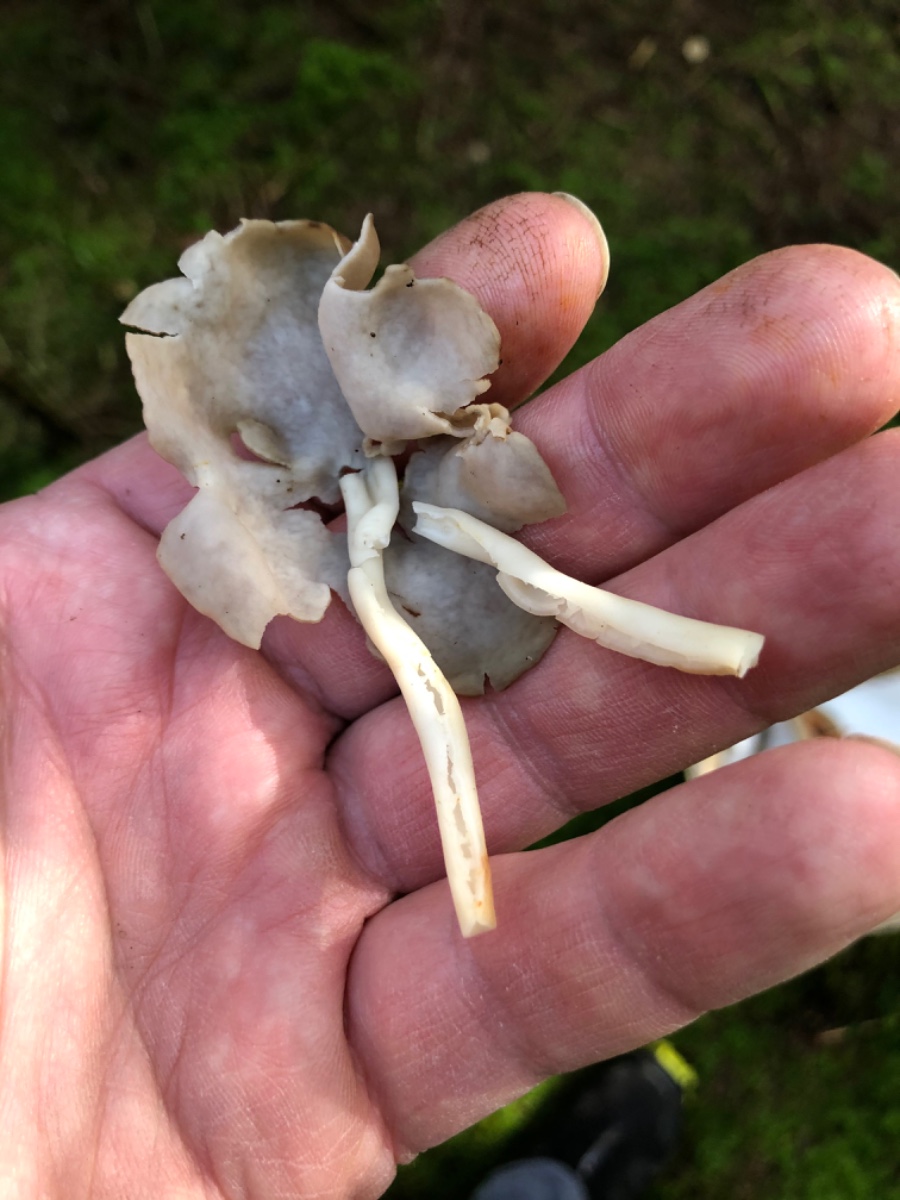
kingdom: Fungi
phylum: Ascomycota
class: Pezizomycetes
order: Pezizales
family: Helvellaceae
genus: Helvella
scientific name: Helvella elastica
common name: elastik-foldhat
